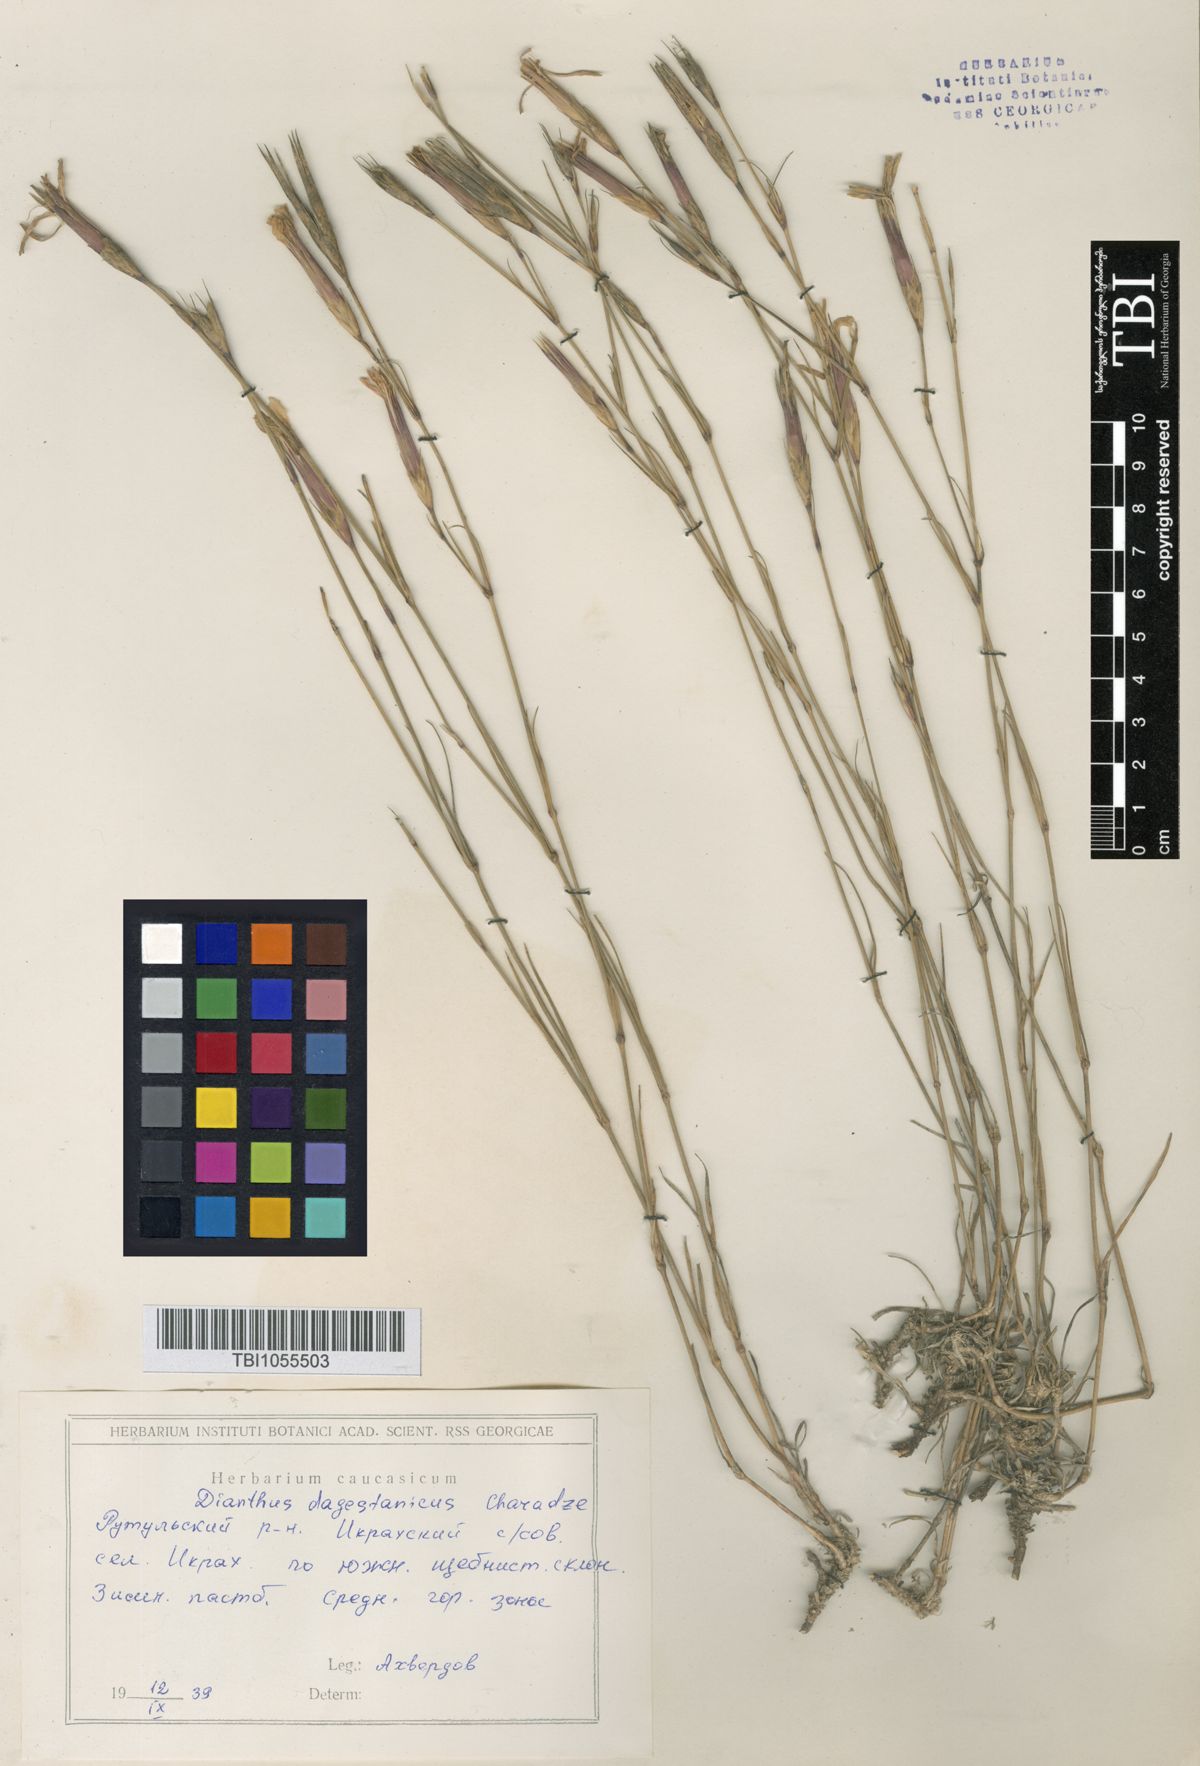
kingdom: Plantae
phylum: Tracheophyta
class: Magnoliopsida
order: Caryophyllales
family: Caryophyllaceae
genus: Dianthus
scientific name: Dianthus daghestanicus
